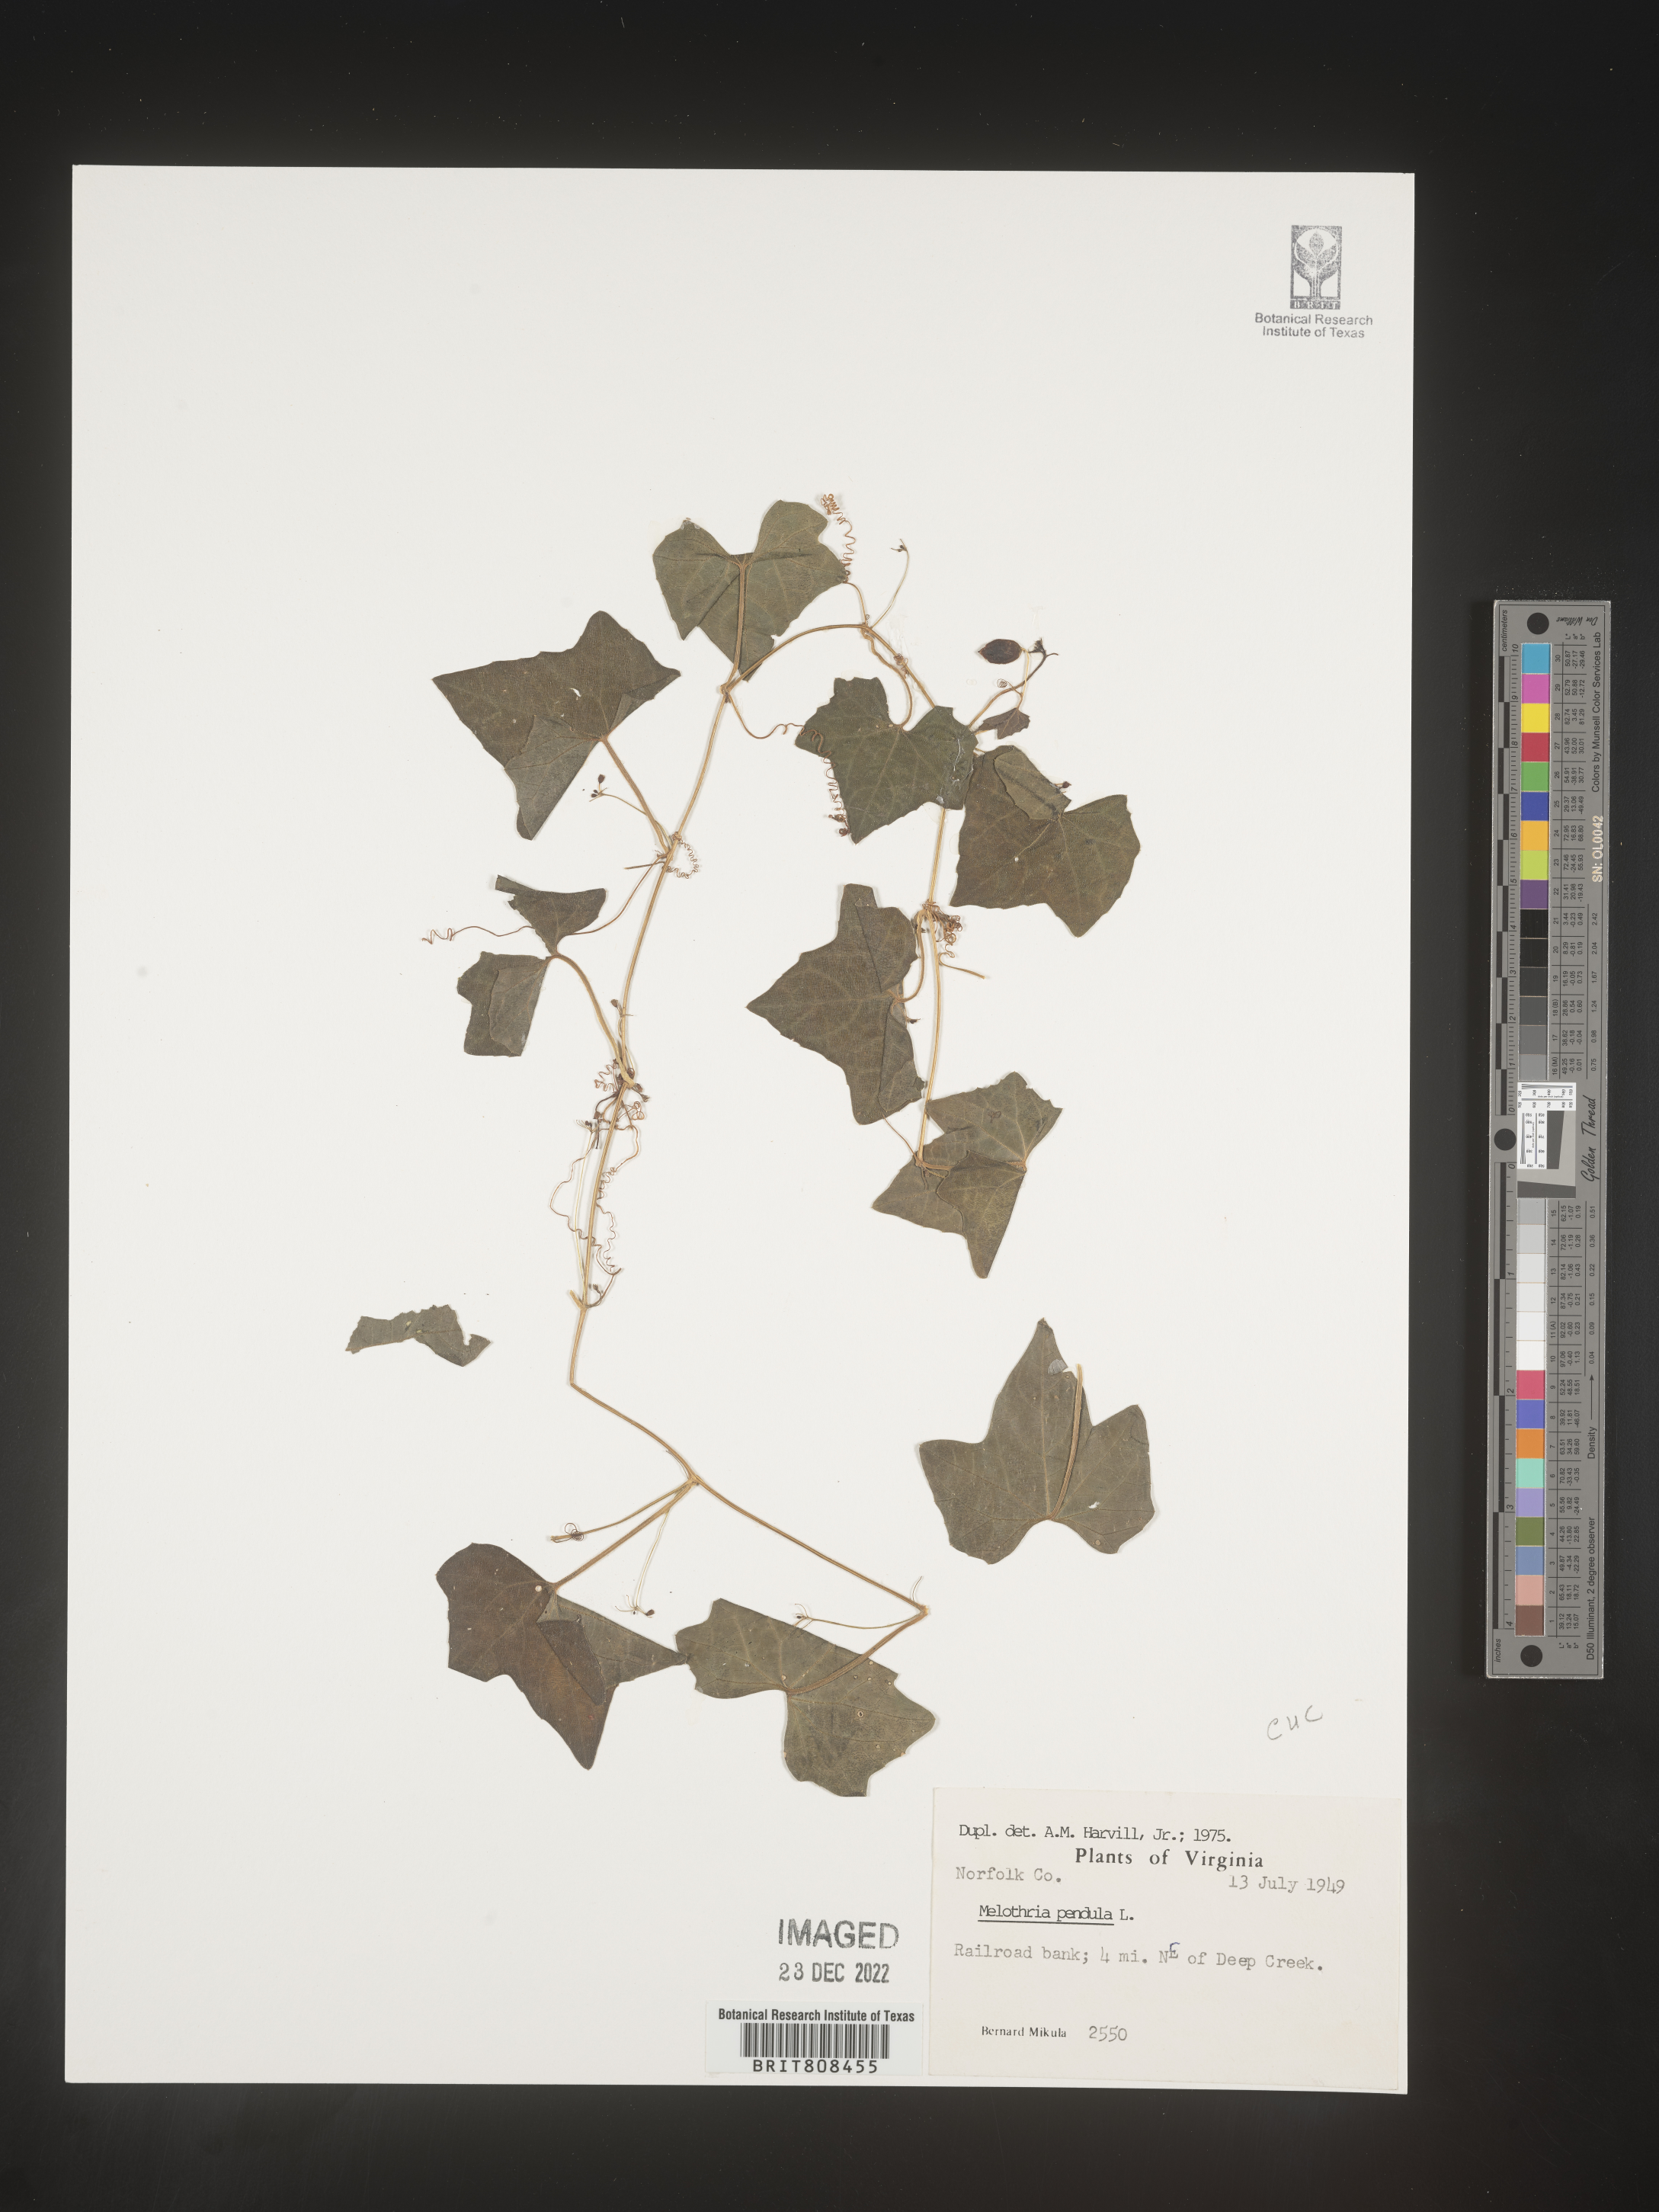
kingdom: Plantae
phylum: Tracheophyta
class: Magnoliopsida
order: Cucurbitales
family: Cucurbitaceae
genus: Melothria
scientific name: Melothria pendula
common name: Creeping-cucumber
